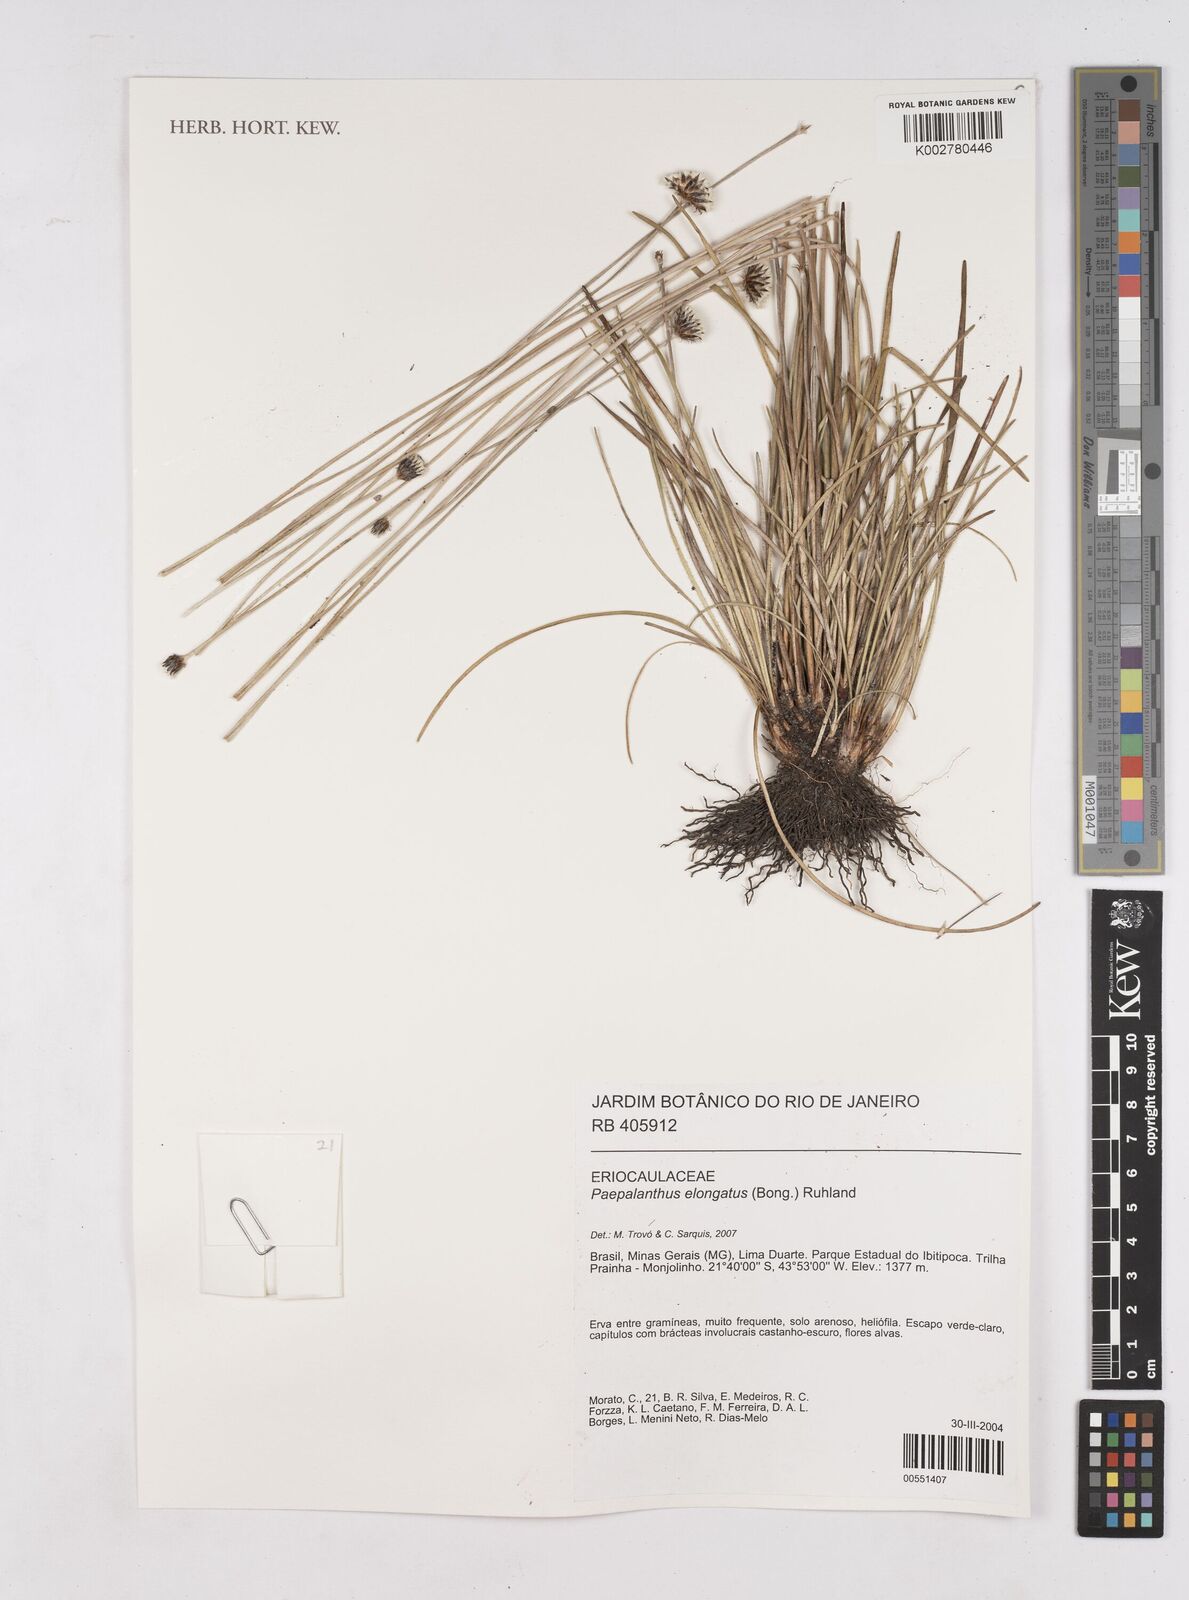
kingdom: Plantae
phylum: Tracheophyta
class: Liliopsida
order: Poales
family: Eriocaulaceae
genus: Paepalanthus
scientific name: Paepalanthus elongatus
